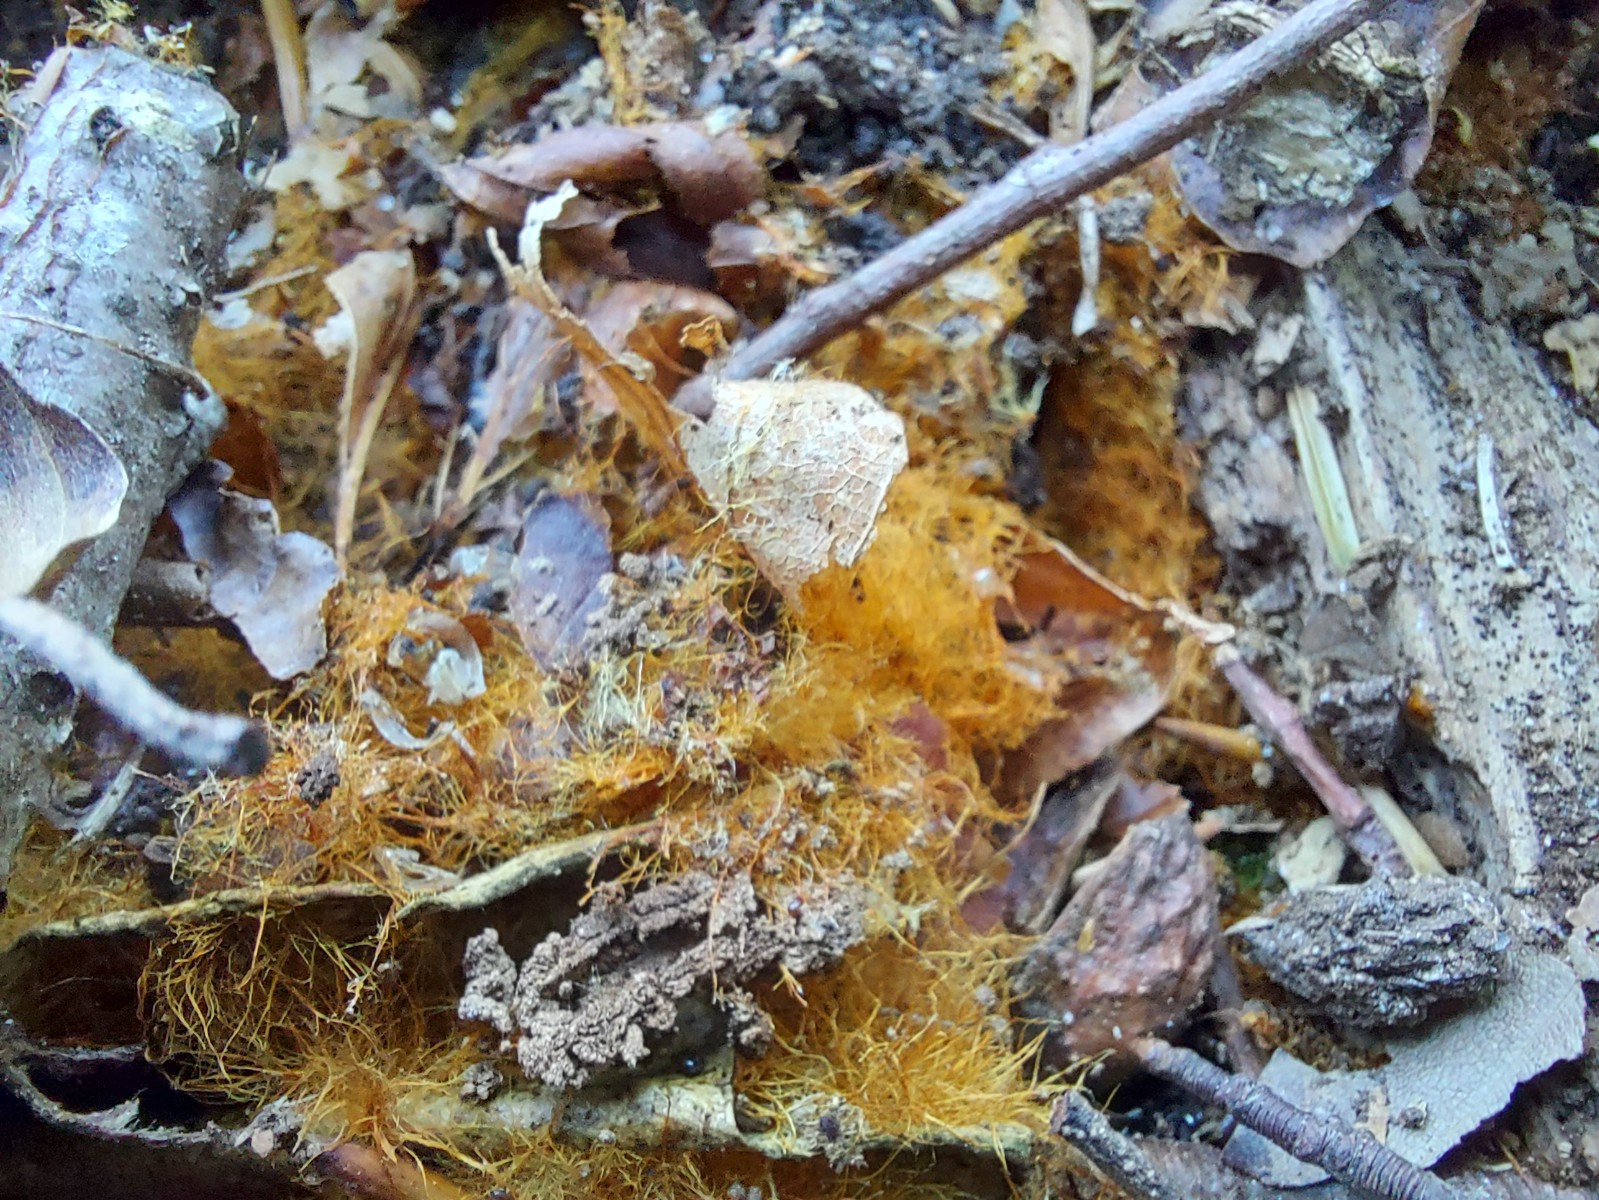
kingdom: Fungi
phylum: Basidiomycota
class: Agaricomycetes
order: Agaricales
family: Psathyrellaceae
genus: Ozonium
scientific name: Ozonium
